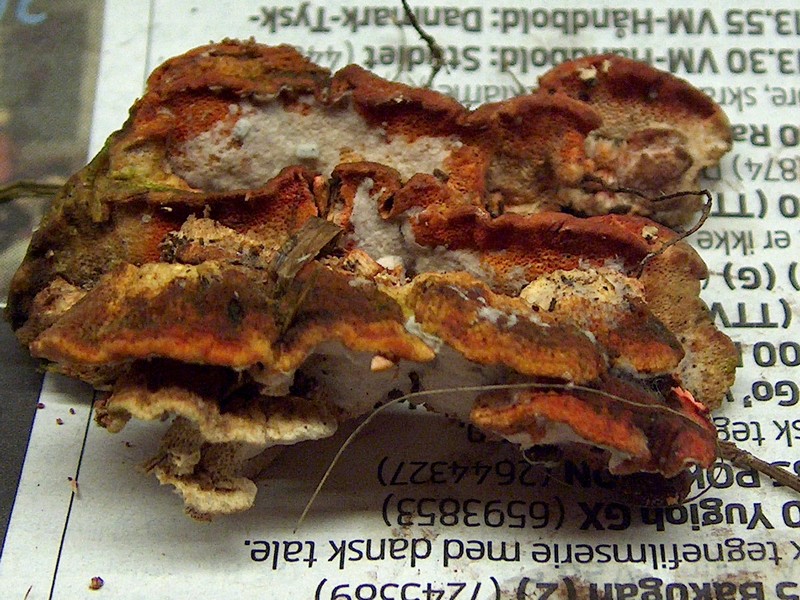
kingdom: Fungi
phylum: Basidiomycota
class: Agaricomycetes
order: Polyporales
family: Fomitopsidaceae
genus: Neoantrodia
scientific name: Neoantrodia serialis
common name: række-sejporesvamp
